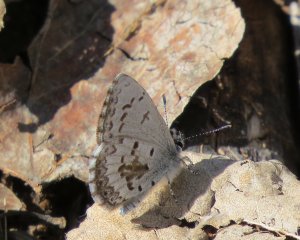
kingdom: Animalia
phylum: Arthropoda
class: Insecta
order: Lepidoptera
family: Lycaenidae
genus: Celastrina
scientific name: Celastrina lucia
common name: Northern Spring Azure
